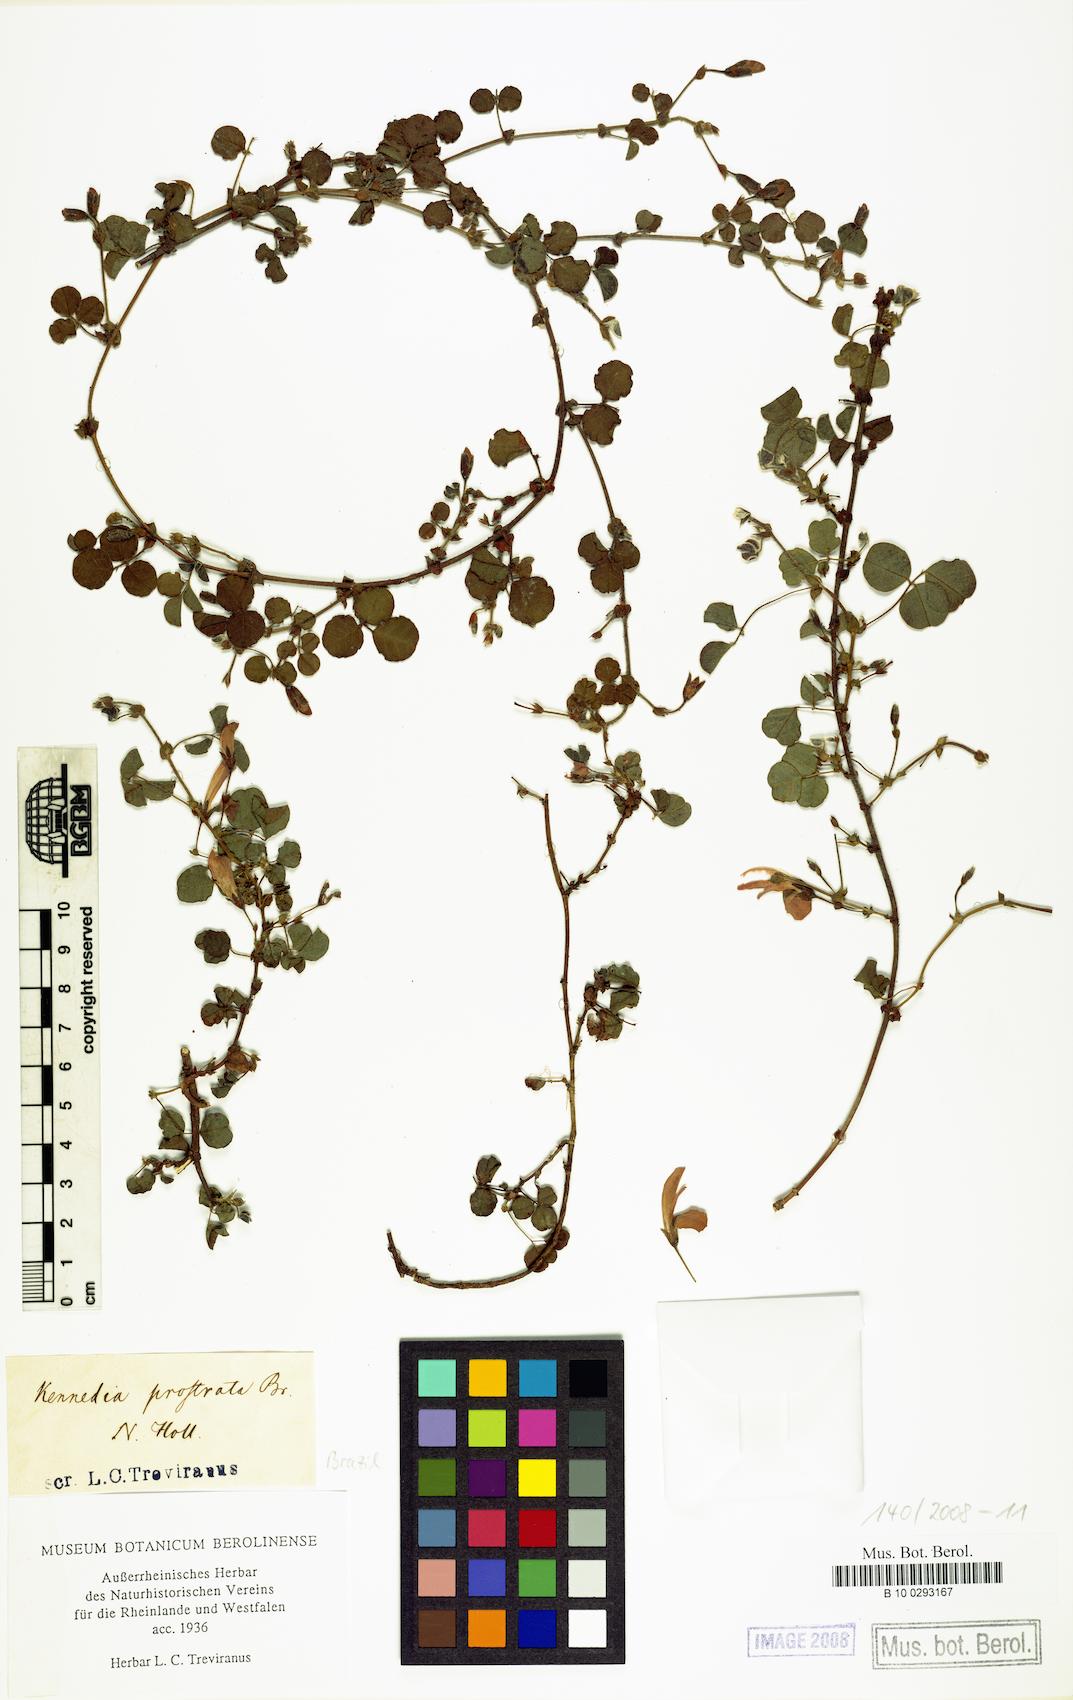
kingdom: Plantae
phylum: Tracheophyta
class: Magnoliopsida
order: Fabales
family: Fabaceae
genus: Kennedia
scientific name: Kennedia prostrata
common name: Running-postman
